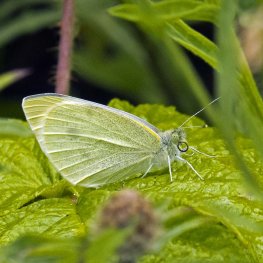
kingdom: Animalia
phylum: Arthropoda
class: Insecta
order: Lepidoptera
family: Pieridae
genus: Pieris
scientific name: Pieris rapae
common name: Cabbage White
